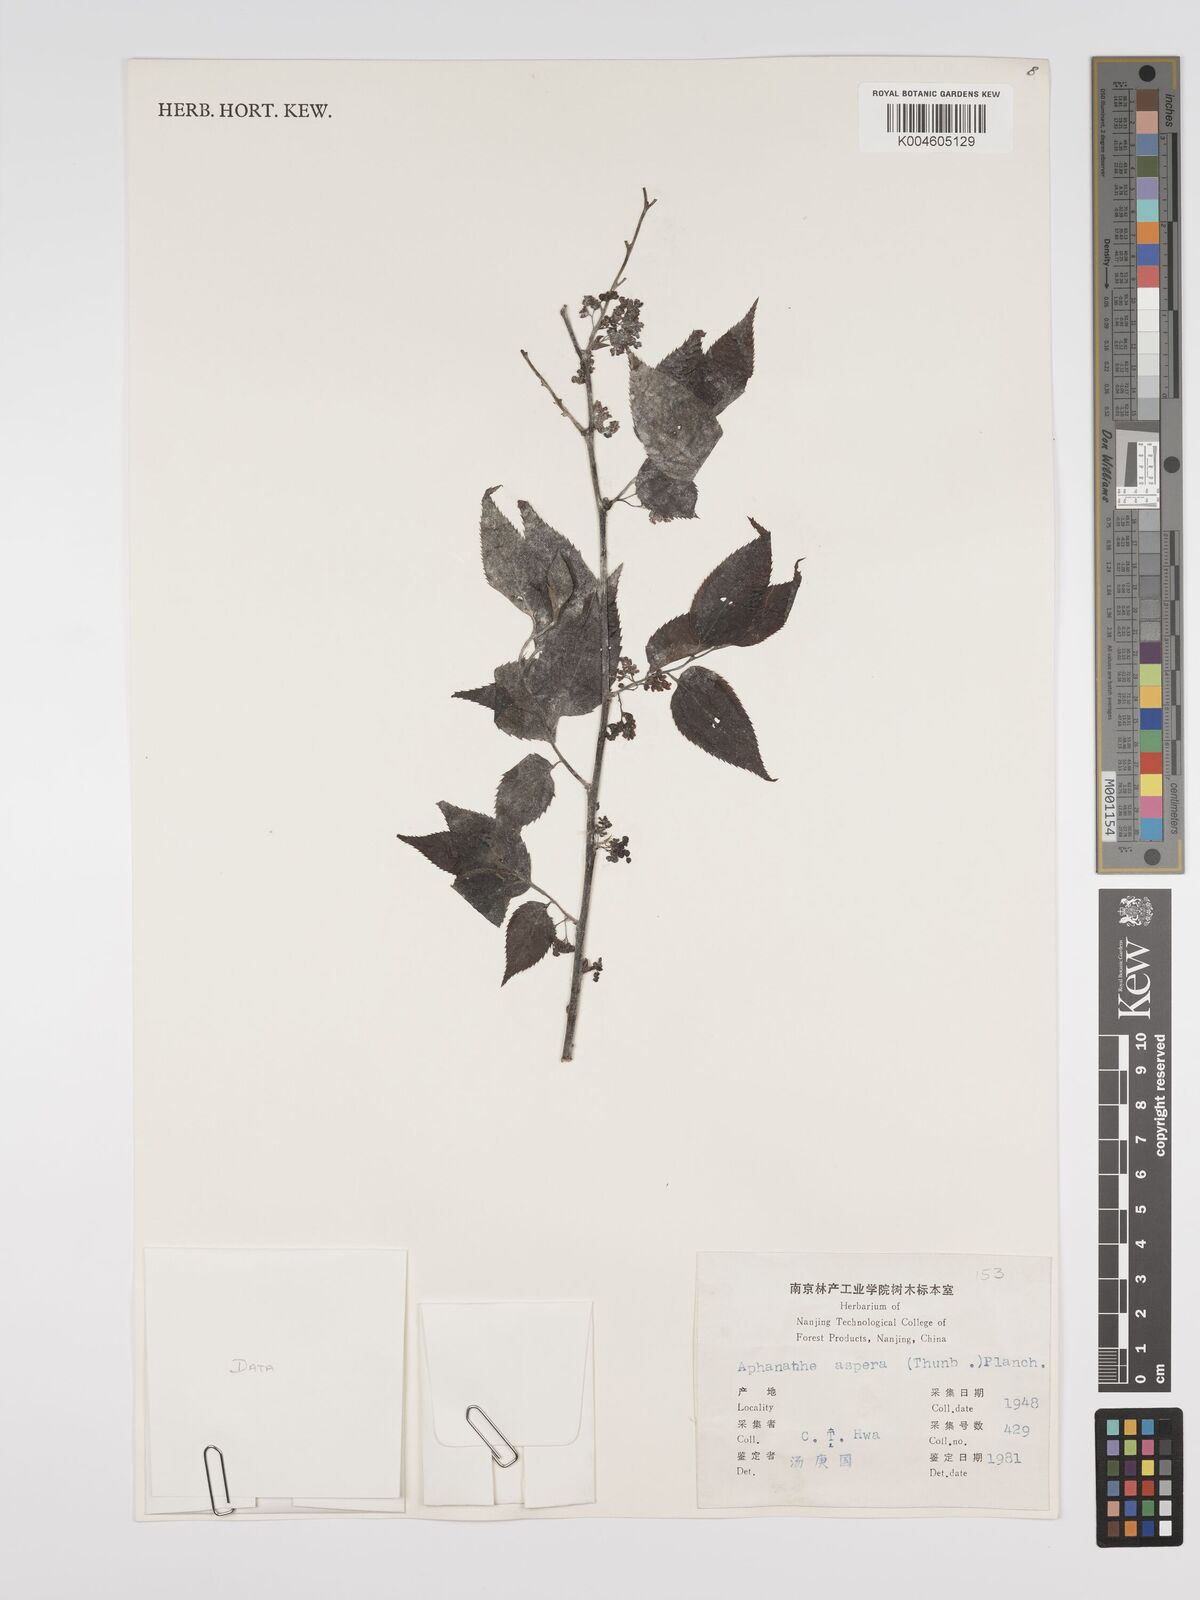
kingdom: Plantae
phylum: Tracheophyta
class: Magnoliopsida
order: Rosales
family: Cannabaceae
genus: Aphananthe
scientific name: Aphananthe aspera
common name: Mukutree
